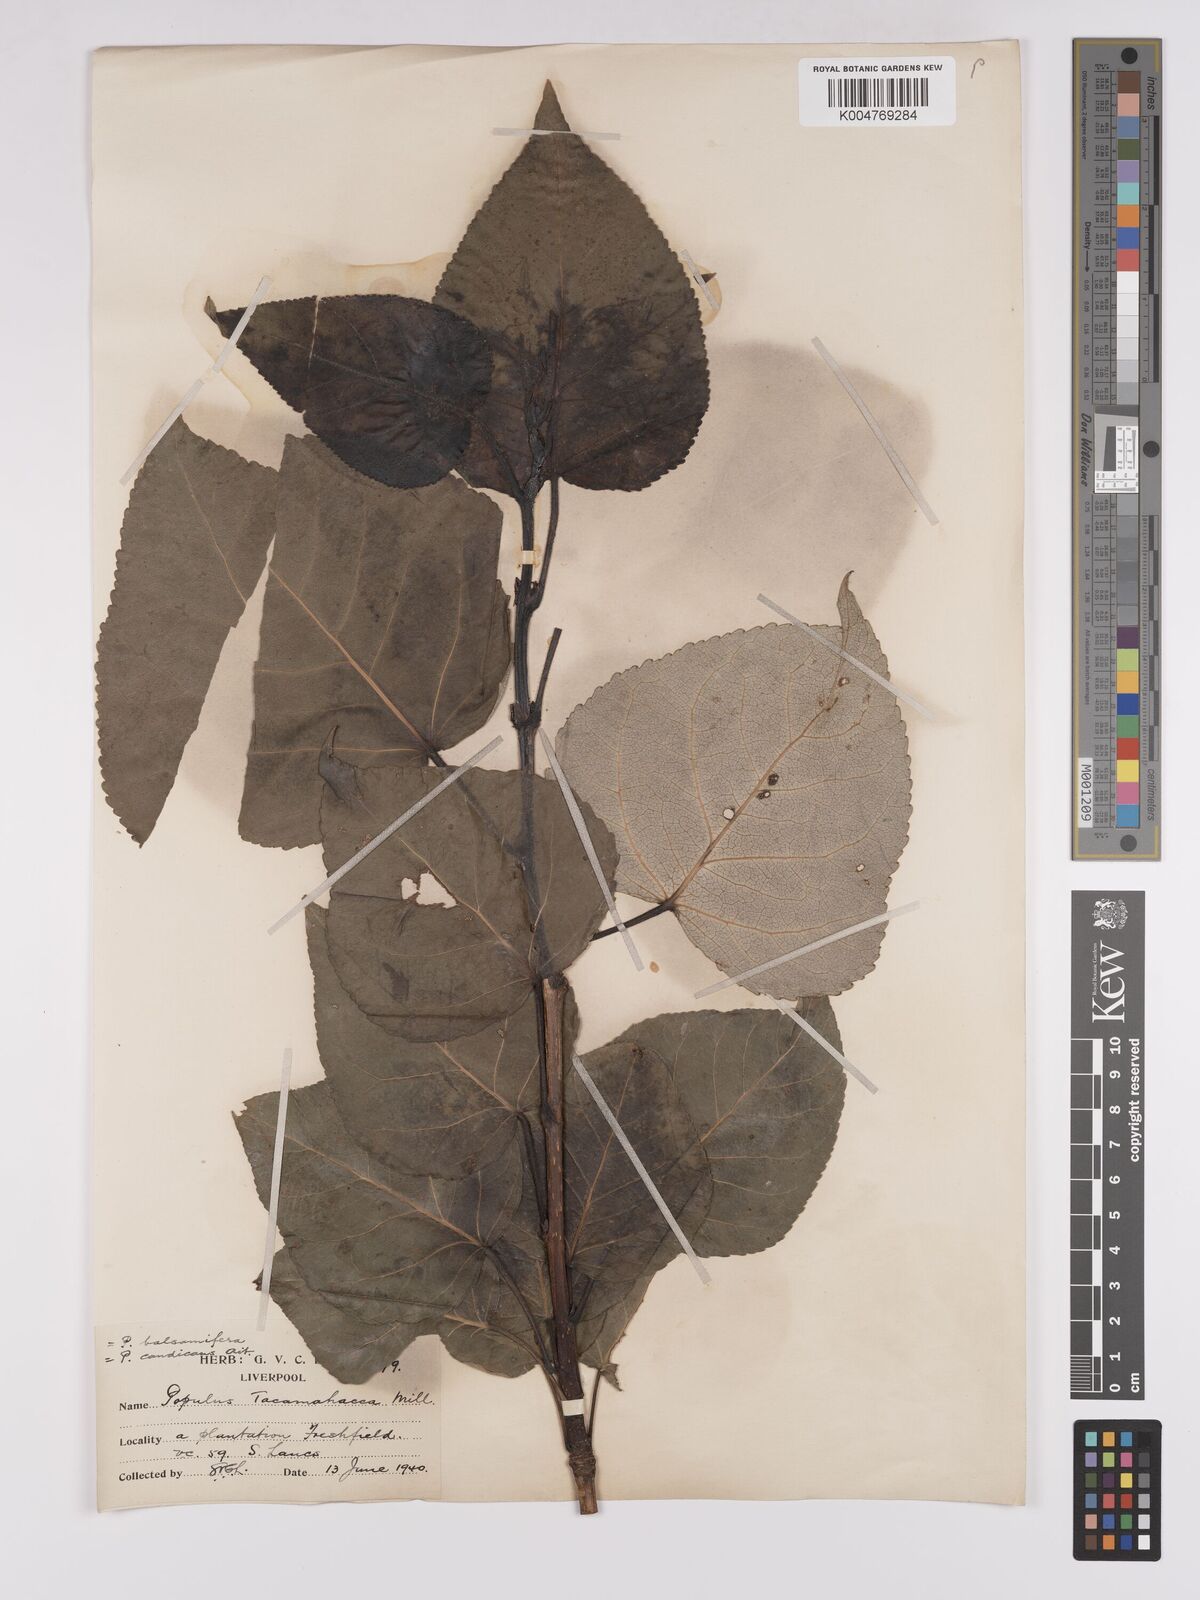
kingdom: Plantae
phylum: Tracheophyta
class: Magnoliopsida
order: Malpighiales
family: Salicaceae
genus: Populus
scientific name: Populus balsamifera
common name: Balsam poplar
